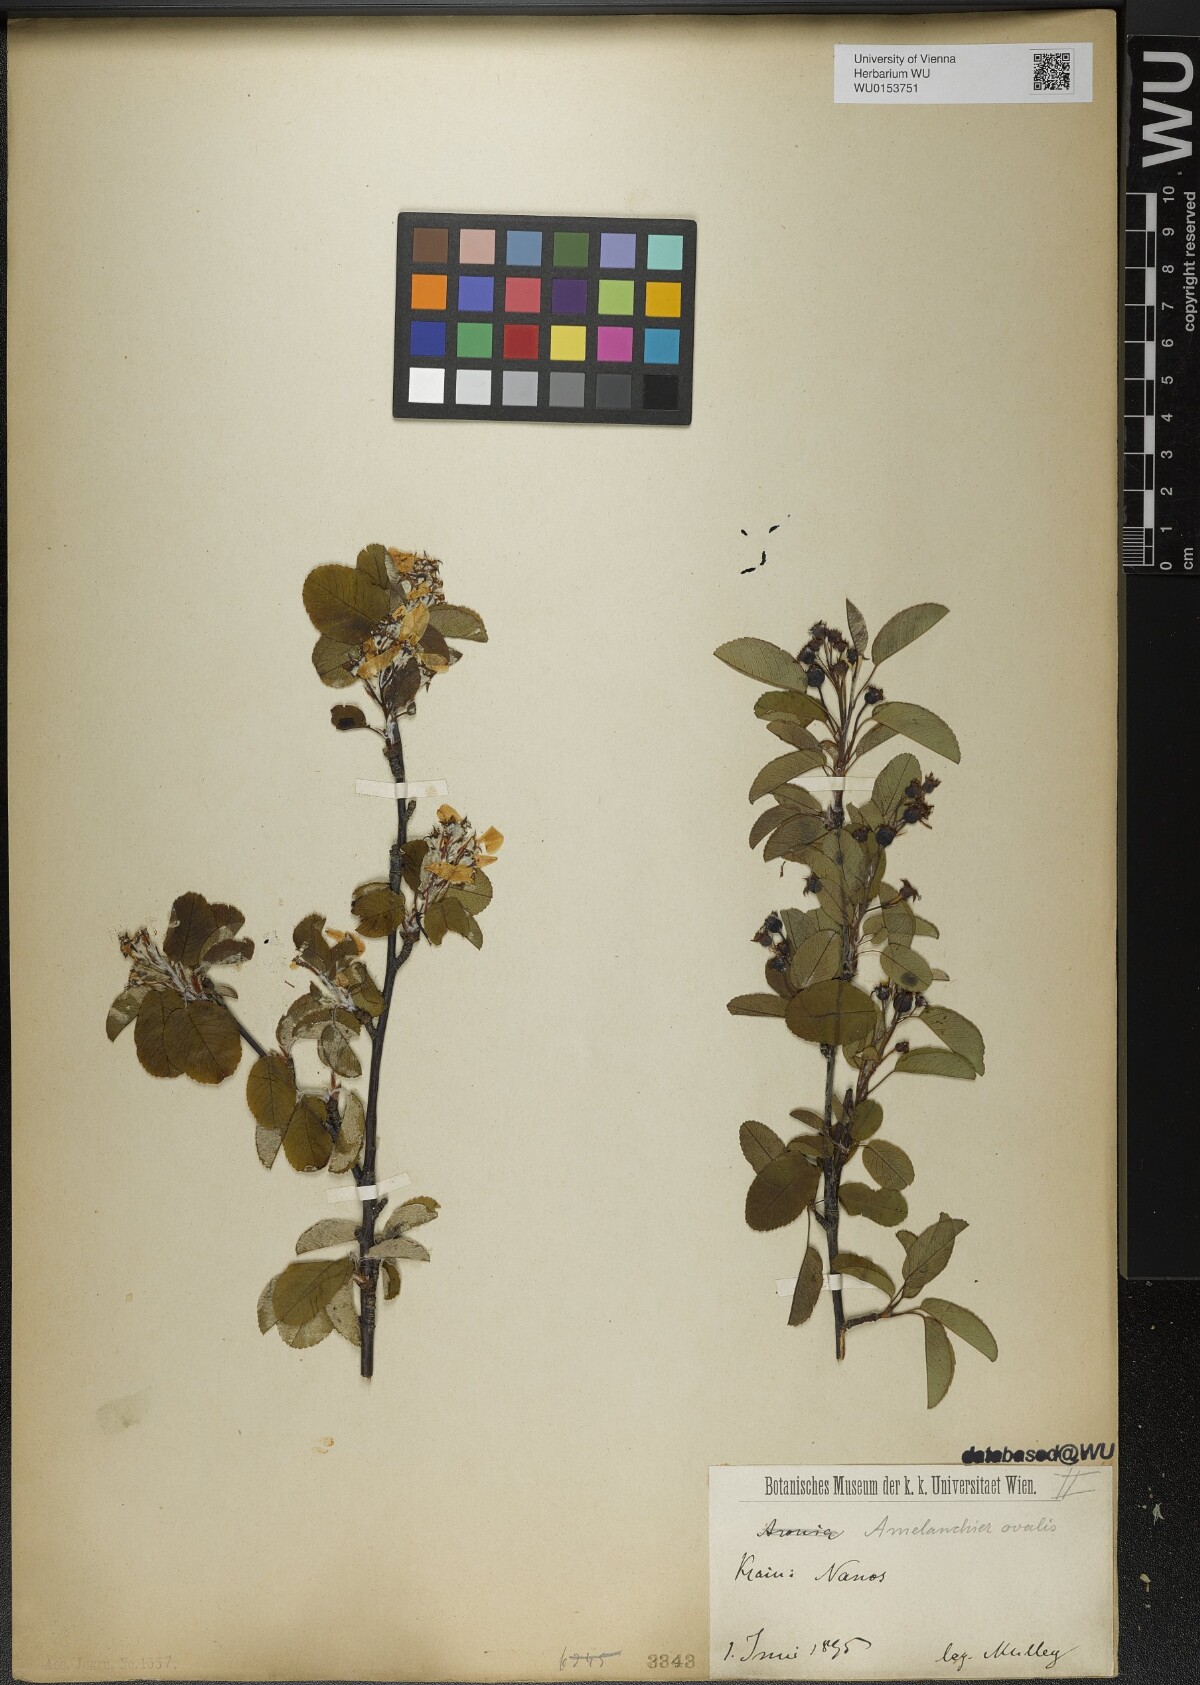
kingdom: Plantae
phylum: Tracheophyta
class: Magnoliopsida
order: Rosales
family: Rosaceae
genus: Amelanchier
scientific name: Amelanchier ovalis
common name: Serviceberry
